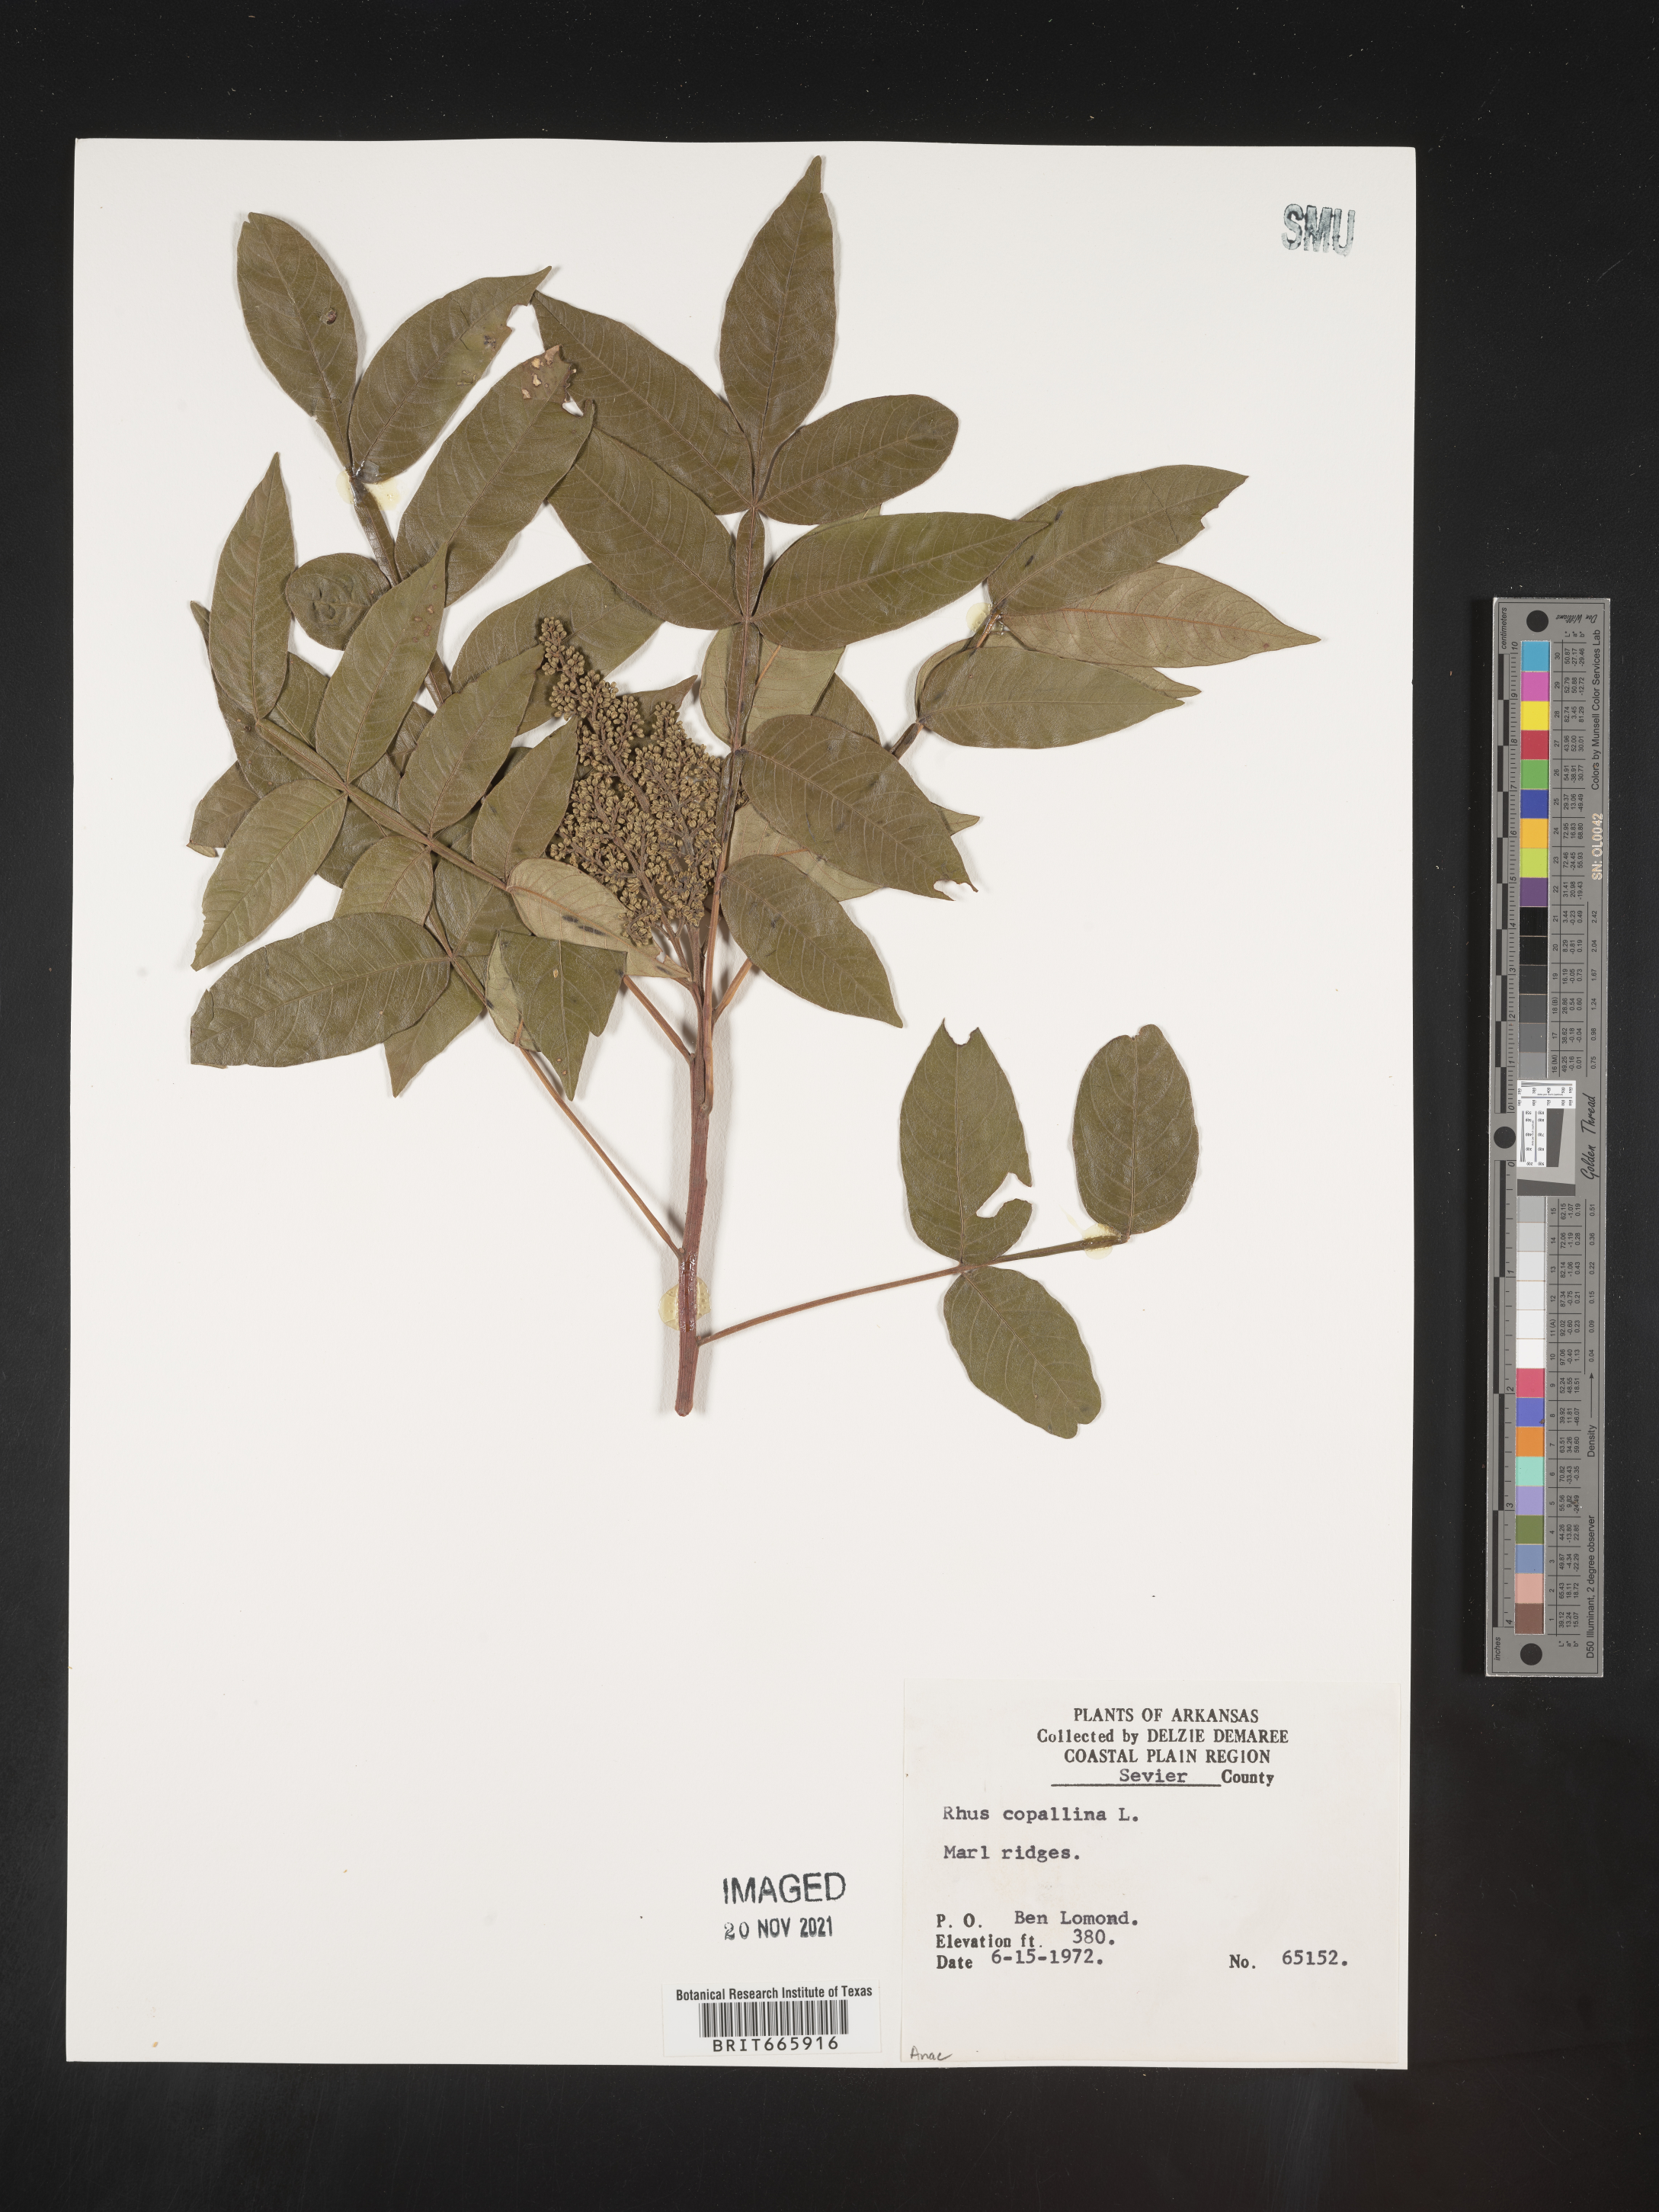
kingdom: Plantae
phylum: Tracheophyta
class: Magnoliopsida
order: Sapindales
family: Anacardiaceae
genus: Rhus
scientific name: Rhus copallina
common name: Shining sumac
